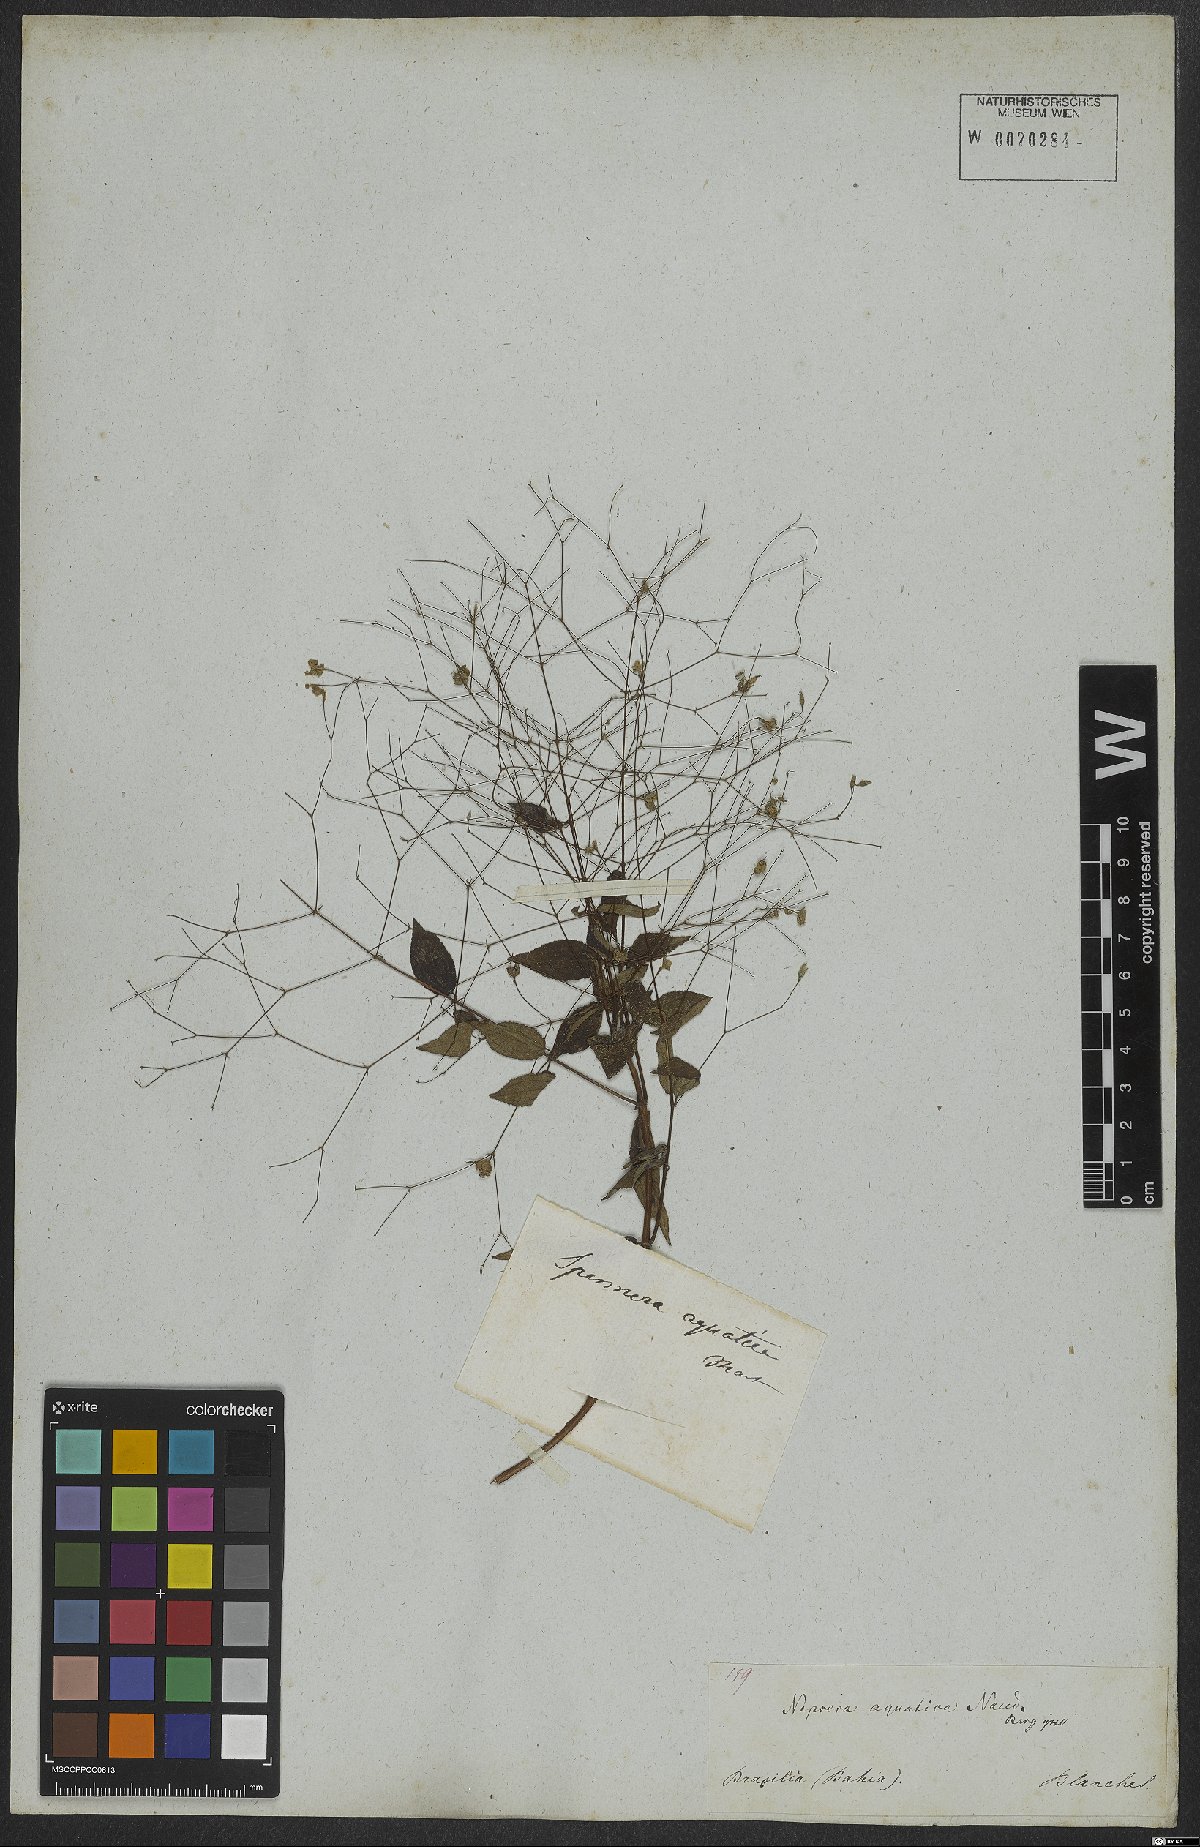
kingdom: Plantae
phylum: Tracheophyta
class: Magnoliopsida
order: Myrtales
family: Melastomataceae
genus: Nepsera
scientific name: Nepsera aquatica
